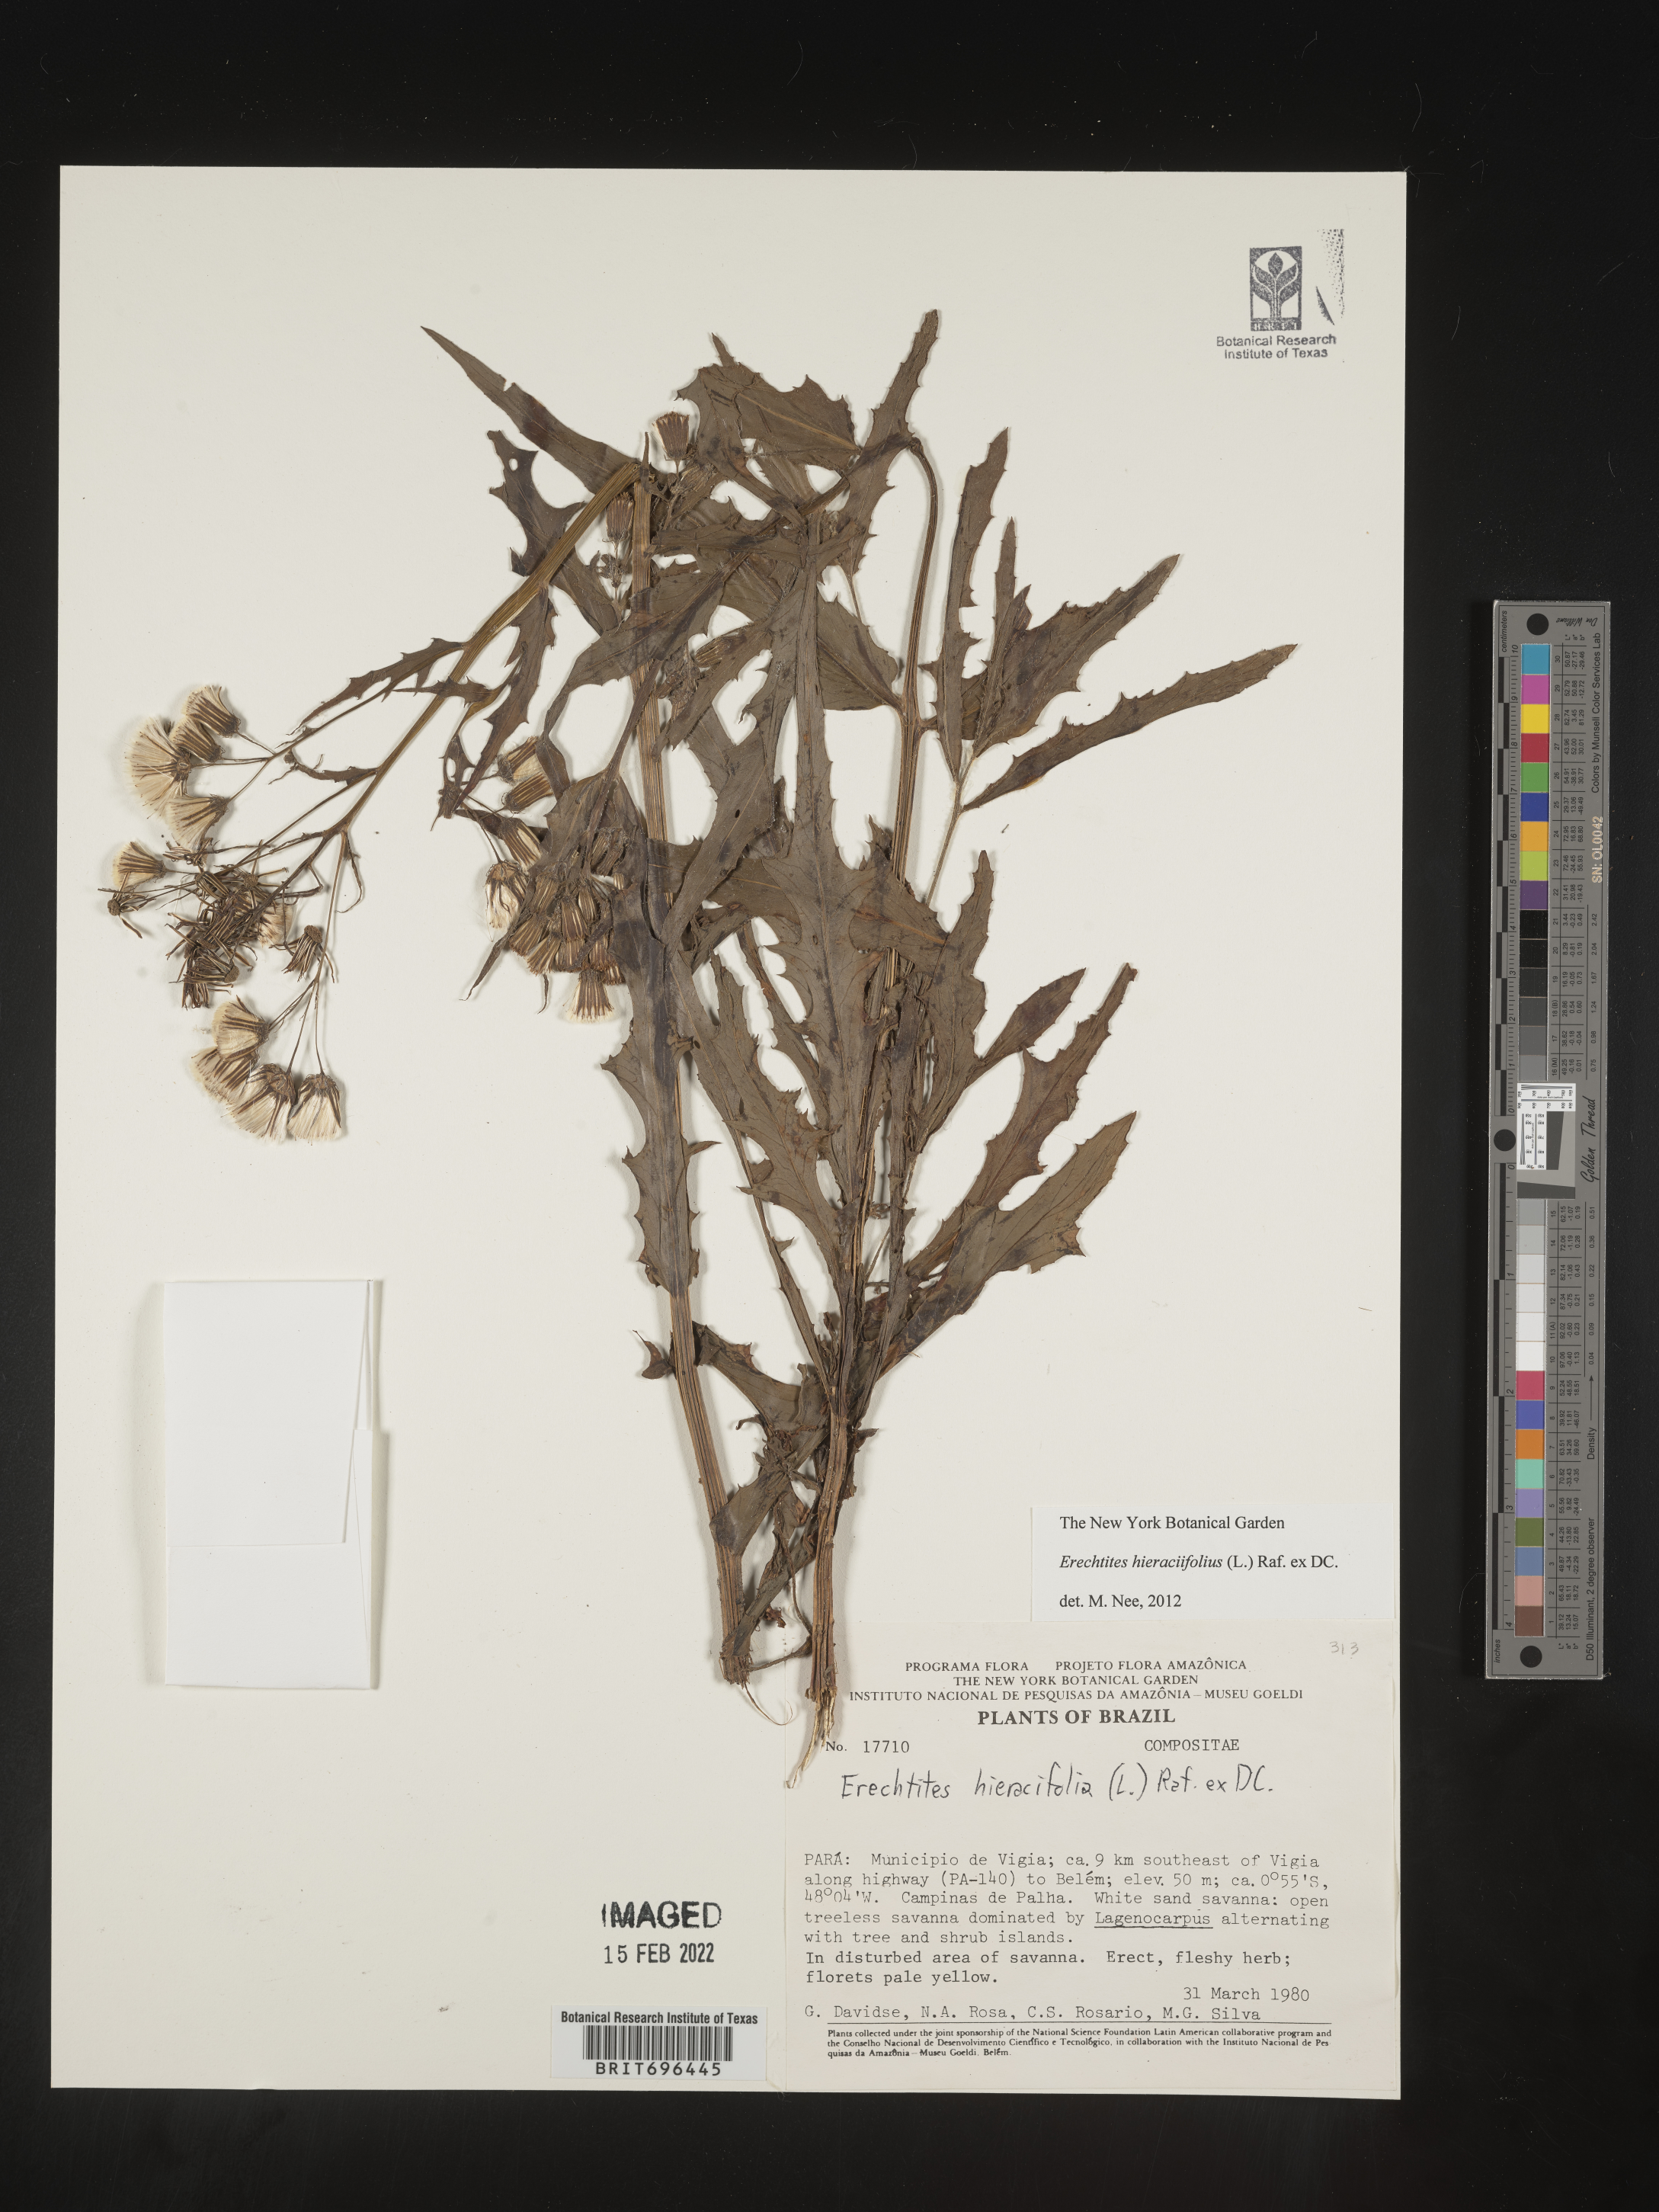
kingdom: Plantae
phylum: Tracheophyta
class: Magnoliopsida
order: Asterales
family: Asteraceae
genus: Erechtites
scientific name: Erechtites
